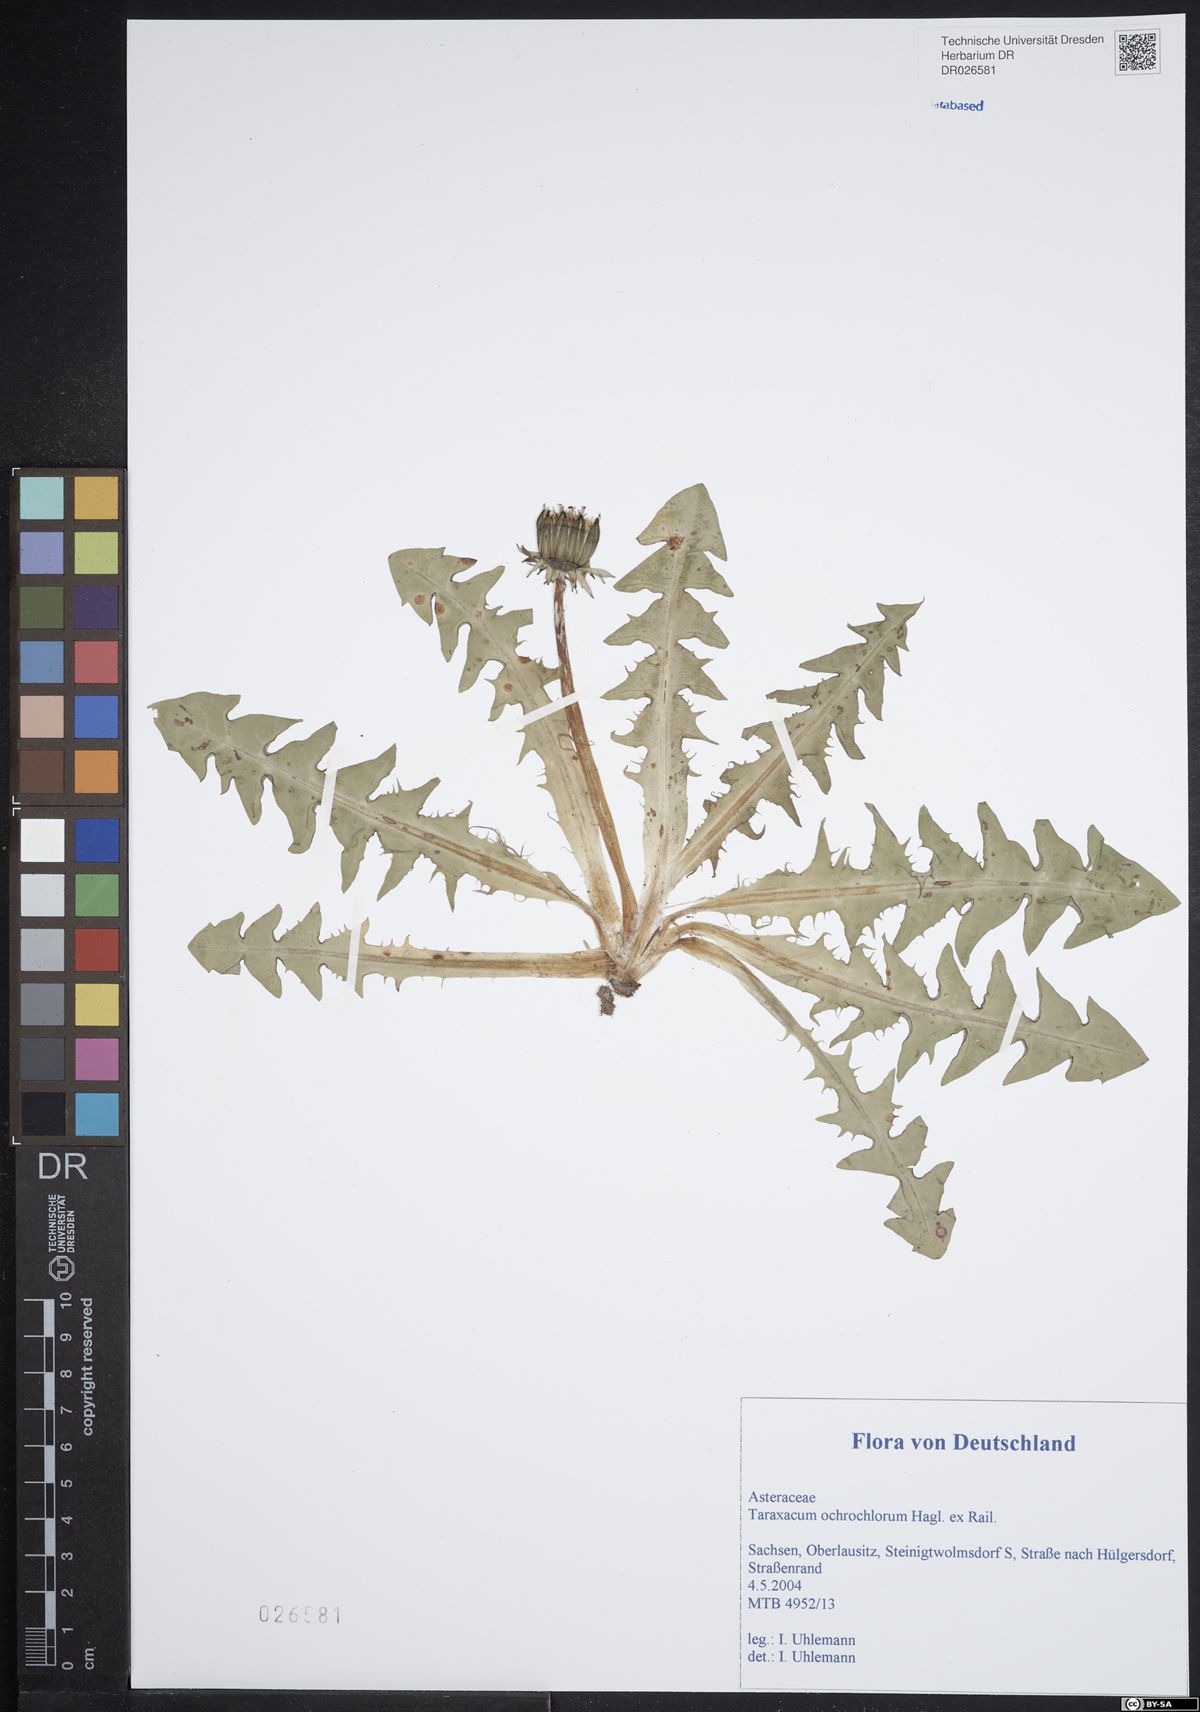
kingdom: Plantae
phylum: Tracheophyta
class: Magnoliopsida
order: Asterales
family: Asteraceae
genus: Taraxacum
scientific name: Taraxacum ochrochlorum
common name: Winged dandelion
